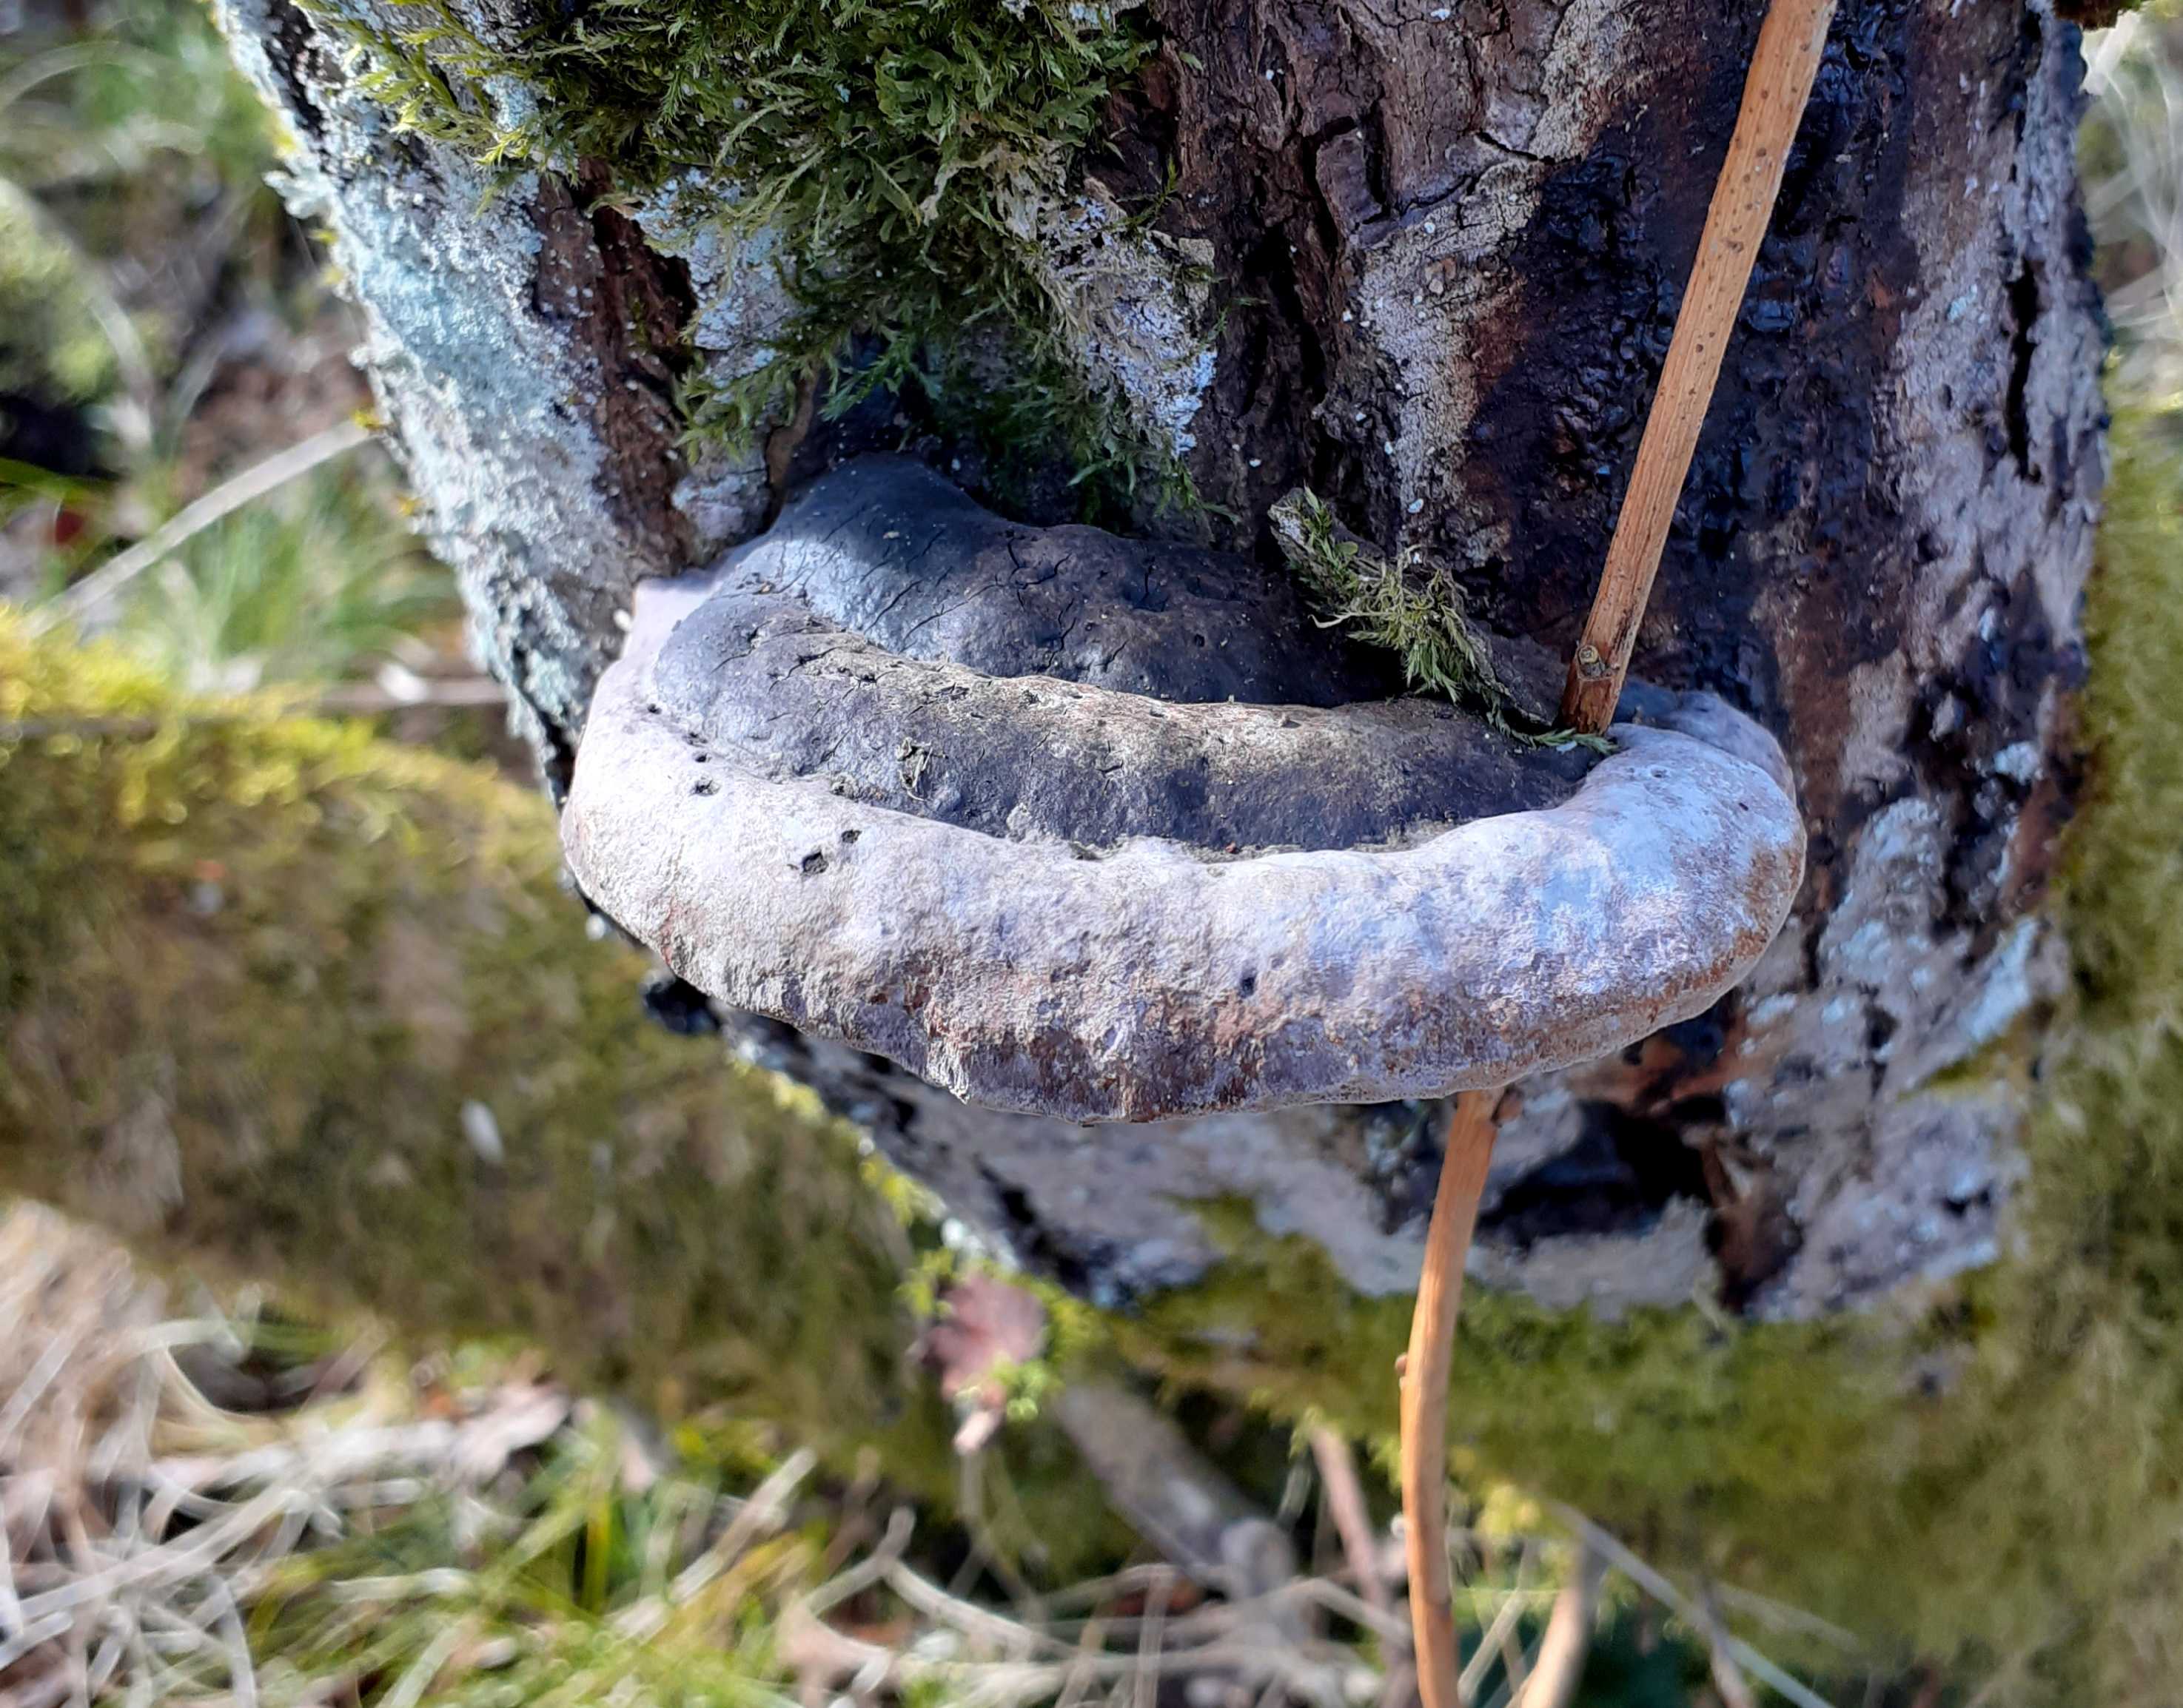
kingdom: Fungi
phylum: Basidiomycota
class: Agaricomycetes
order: Hymenochaetales
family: Hymenochaetaceae
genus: Phellinus
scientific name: Phellinus igniarius
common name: almindelig ildporesvamp
